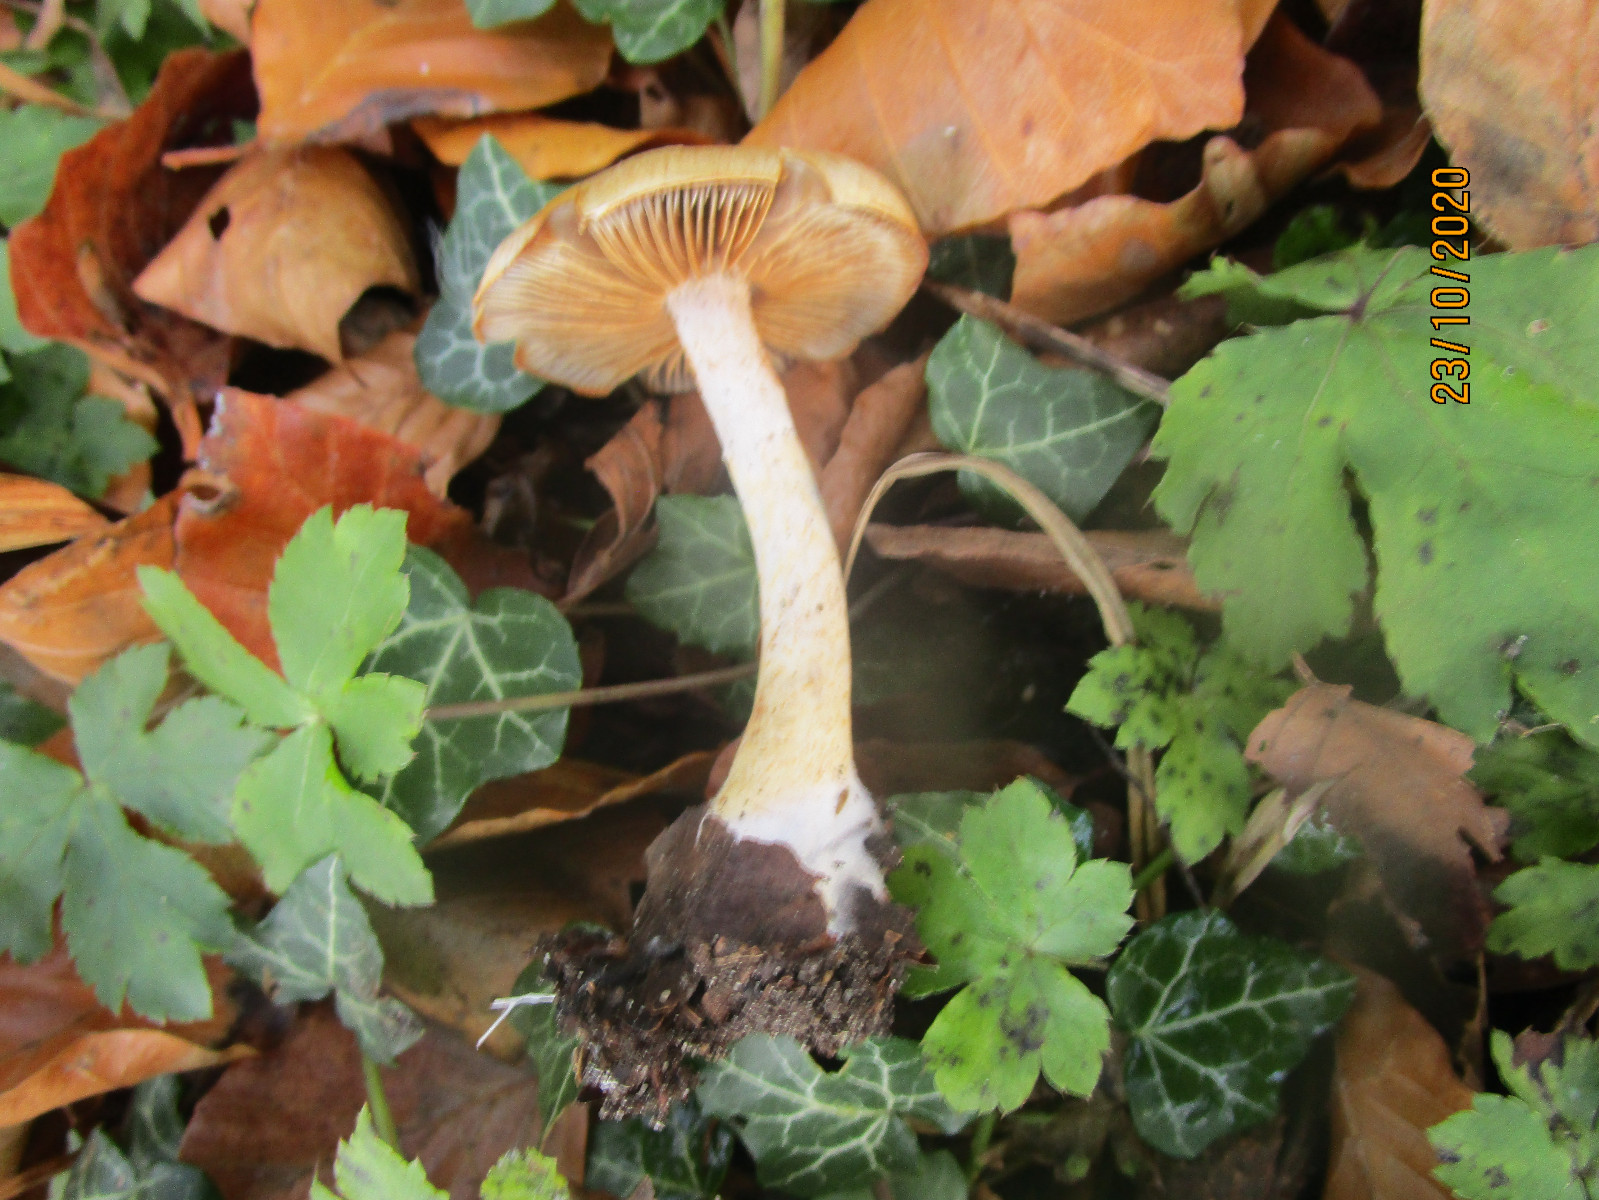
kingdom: Fungi
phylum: Basidiomycota
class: Agaricomycetes
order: Agaricales
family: Cortinariaceae
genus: Cortinarius
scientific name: Cortinarius
